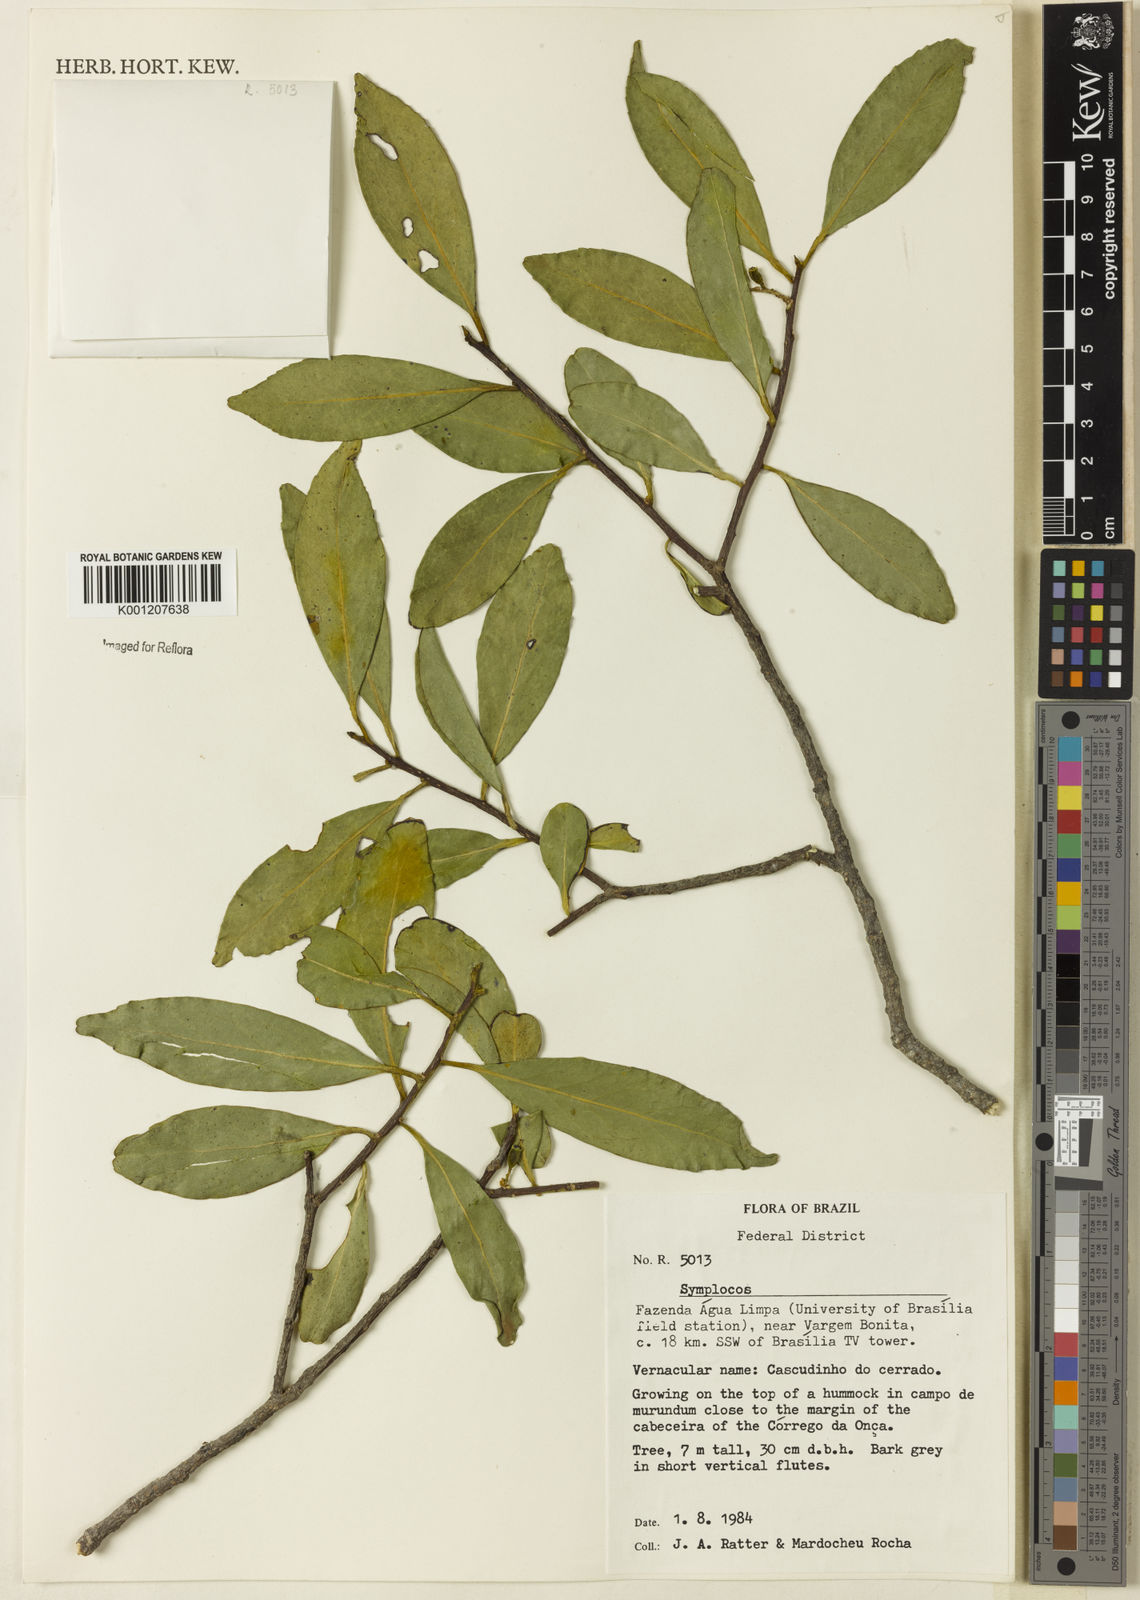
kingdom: Plantae
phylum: Tracheophyta
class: Magnoliopsida
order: Ericales
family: Symplocaceae
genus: Symplocos
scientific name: Symplocos oblongifolia
